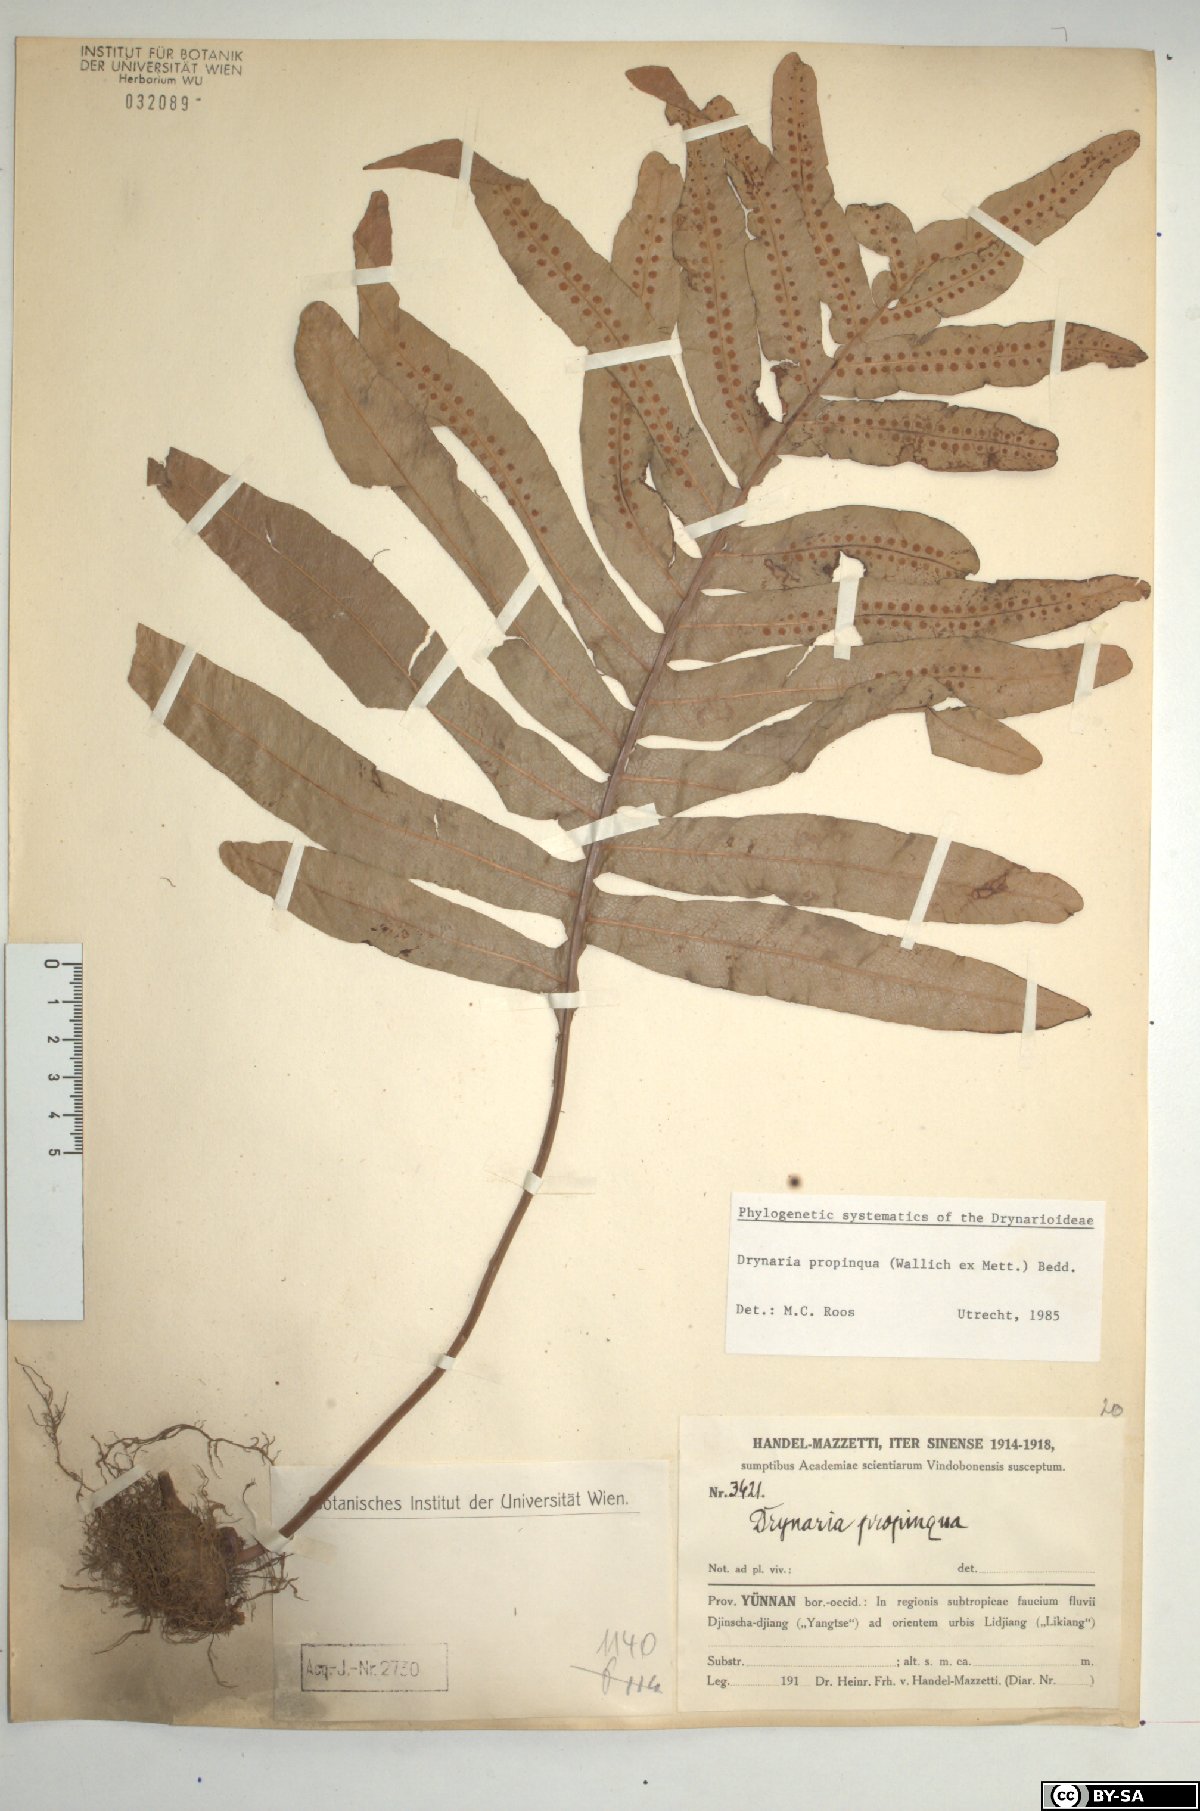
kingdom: Plantae
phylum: Tracheophyta
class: Polypodiopsida
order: Polypodiales
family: Polypodiaceae
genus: Drynaria
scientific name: Drynaria propinqua
